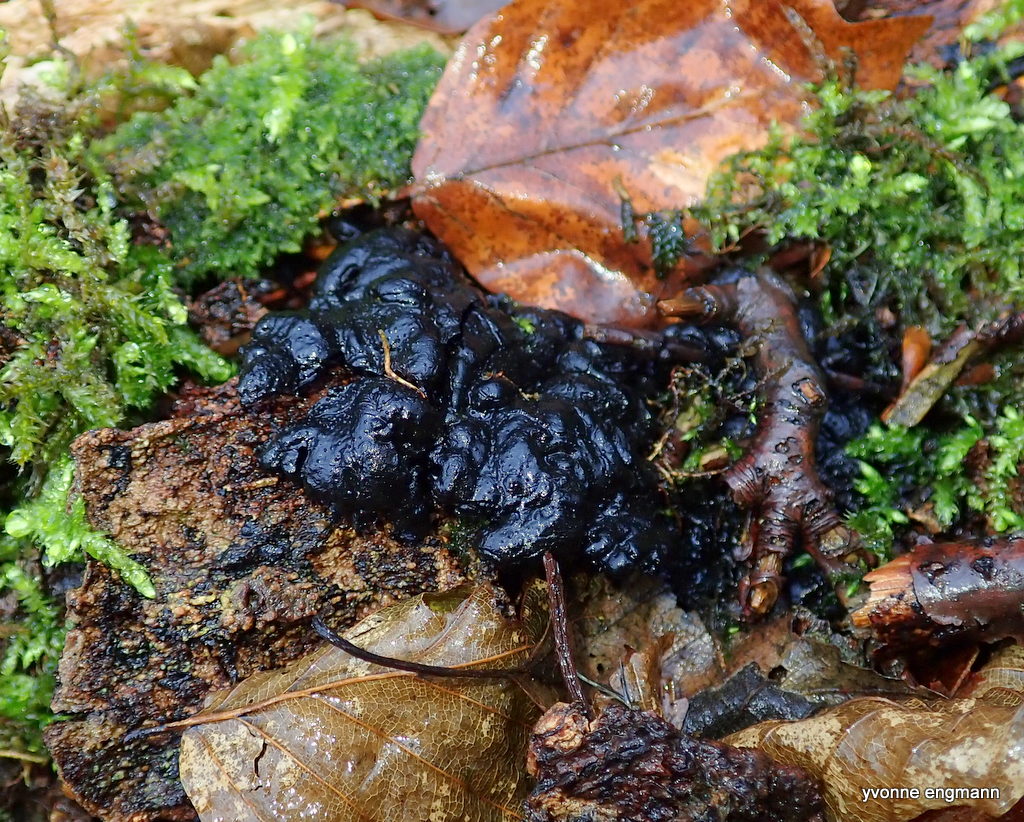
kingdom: Fungi
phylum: Ascomycota
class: Sordariomycetes
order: Xylariales
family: Xylariaceae
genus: Kretzschmaria
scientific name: Kretzschmaria deusta
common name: stor kulsvamp
